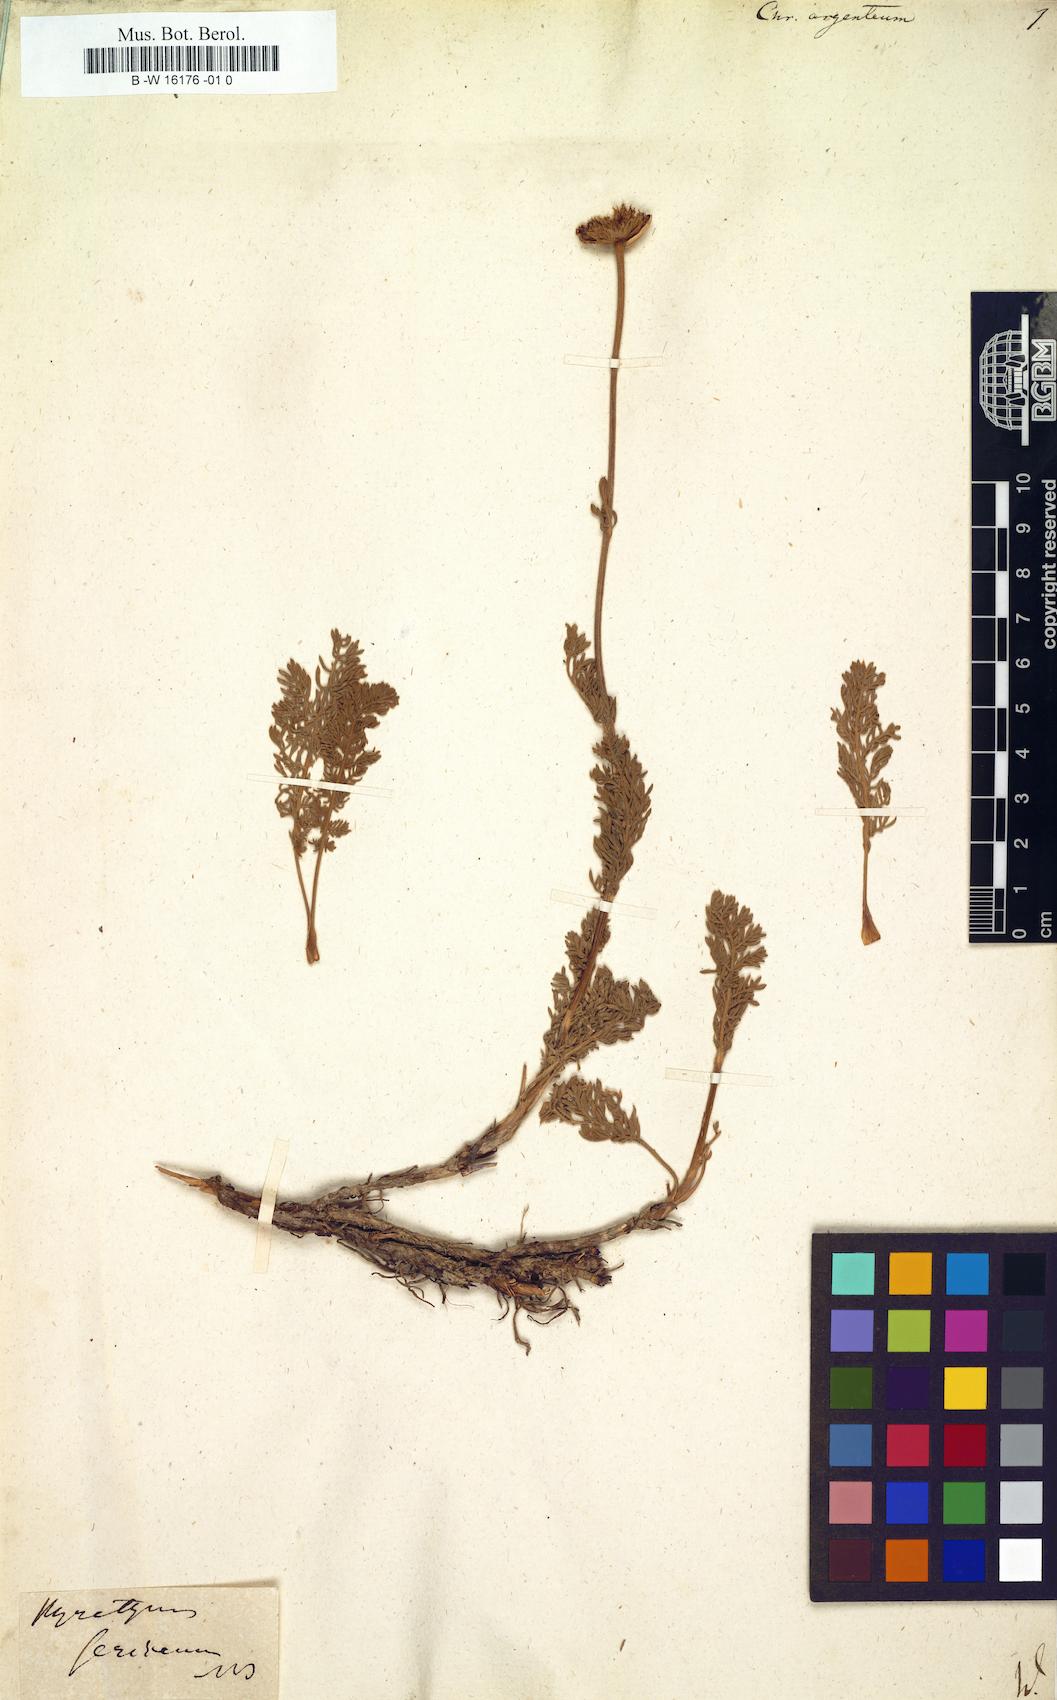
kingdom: Plantae
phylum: Tracheophyta
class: Magnoliopsida
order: Asterales
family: Asteraceae
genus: Tanacetum
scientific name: Tanacetum
